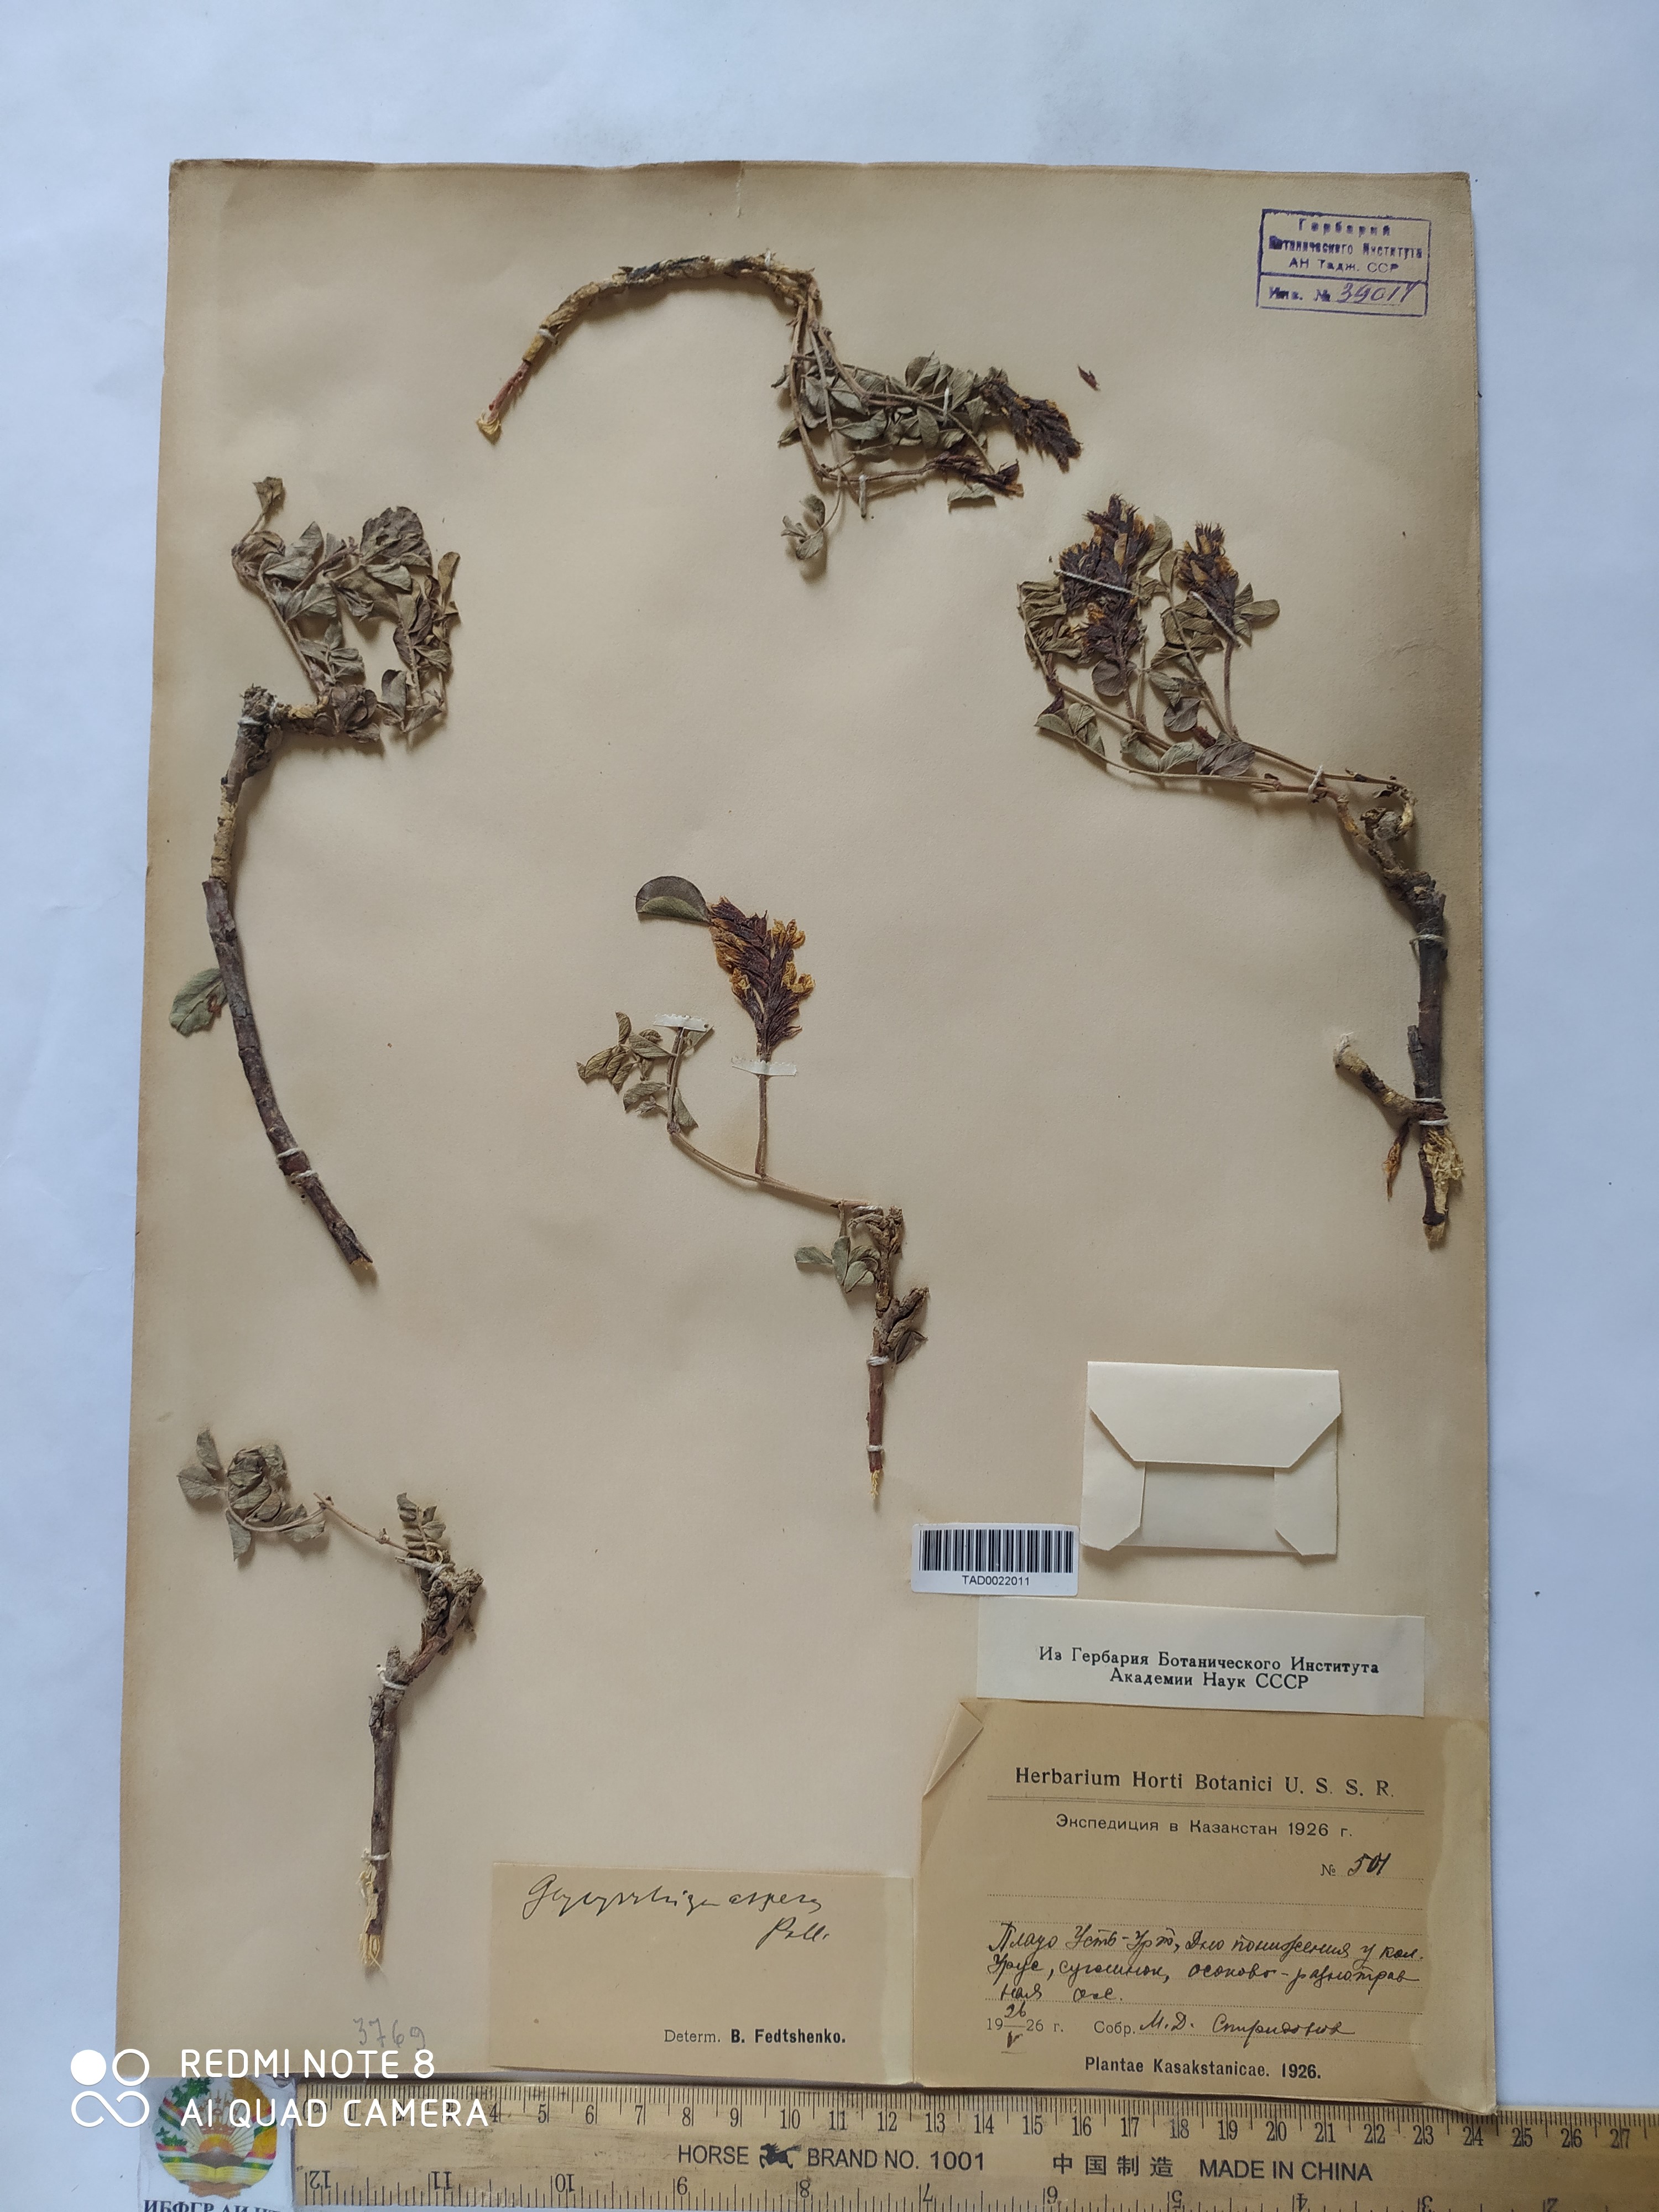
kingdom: Plantae
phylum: Tracheophyta
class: Magnoliopsida
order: Fabales
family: Fabaceae
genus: Glycyrrhiza
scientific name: Glycyrrhiza aspera
